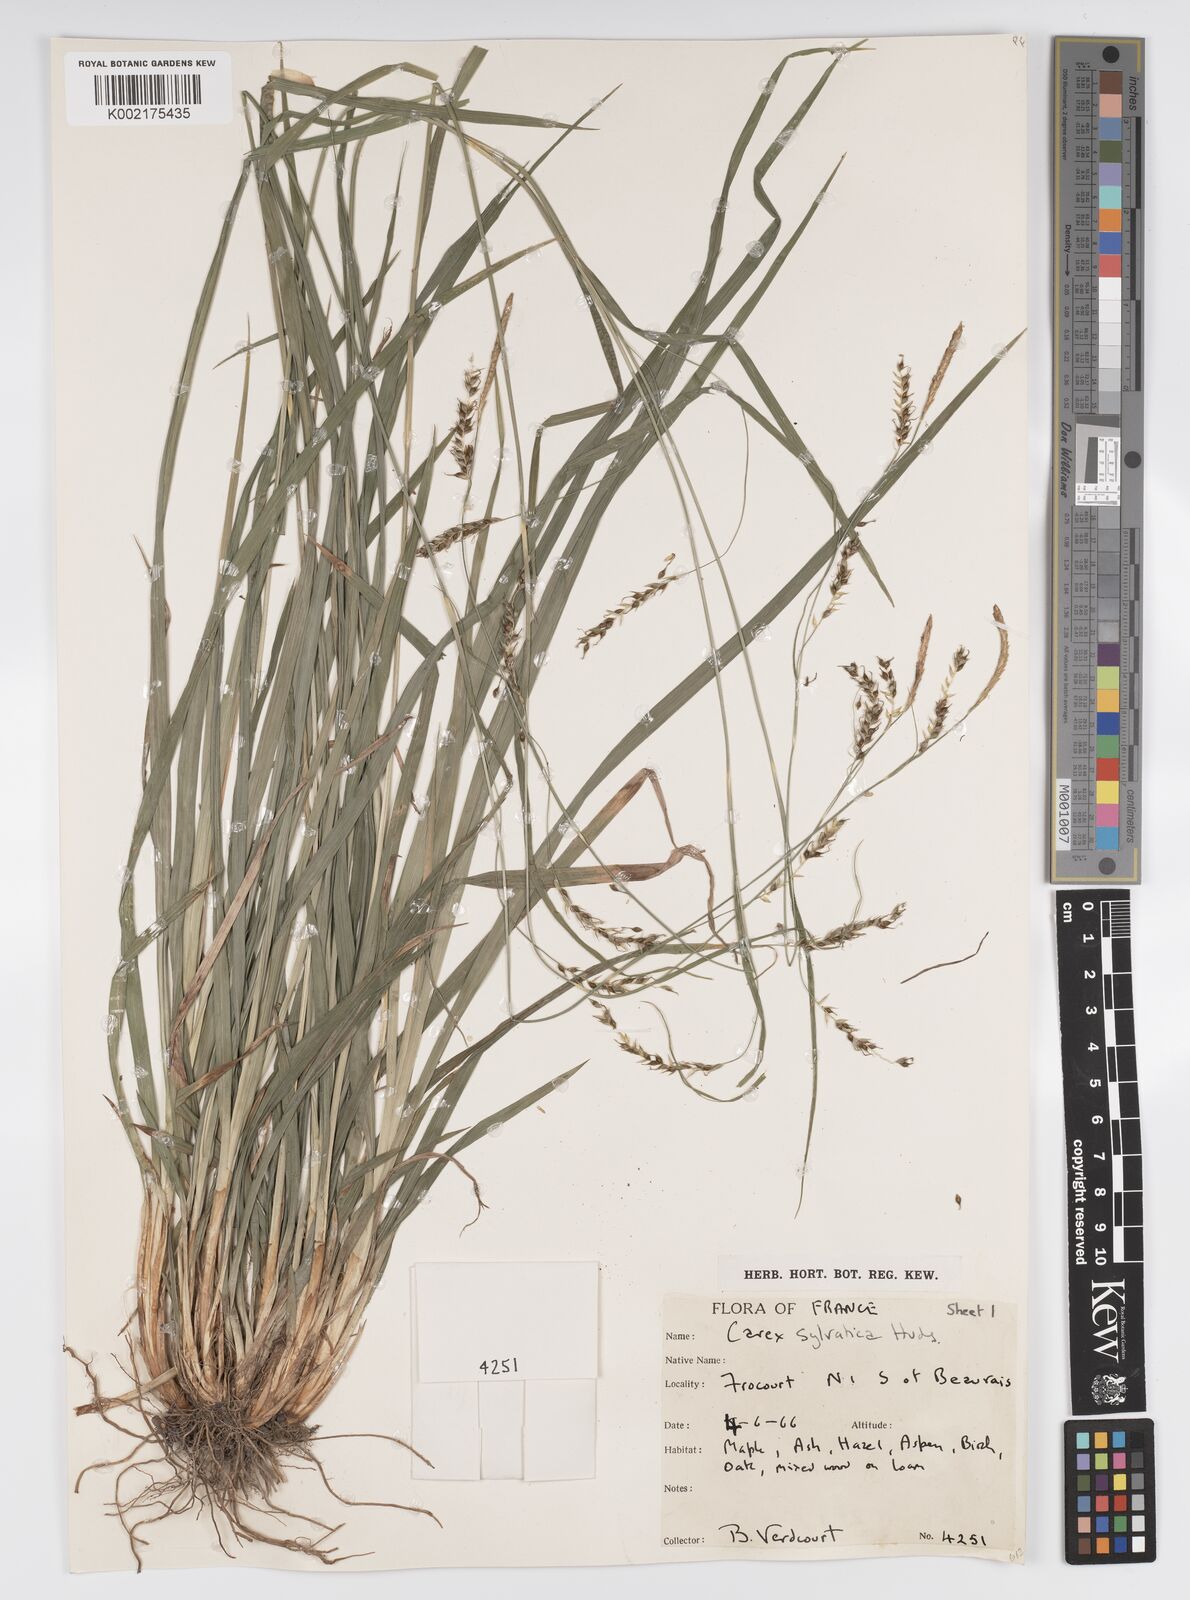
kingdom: Plantae
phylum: Tracheophyta
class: Liliopsida
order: Poales
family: Cyperaceae
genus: Carex
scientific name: Carex sylvatica
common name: Wood-sedge
